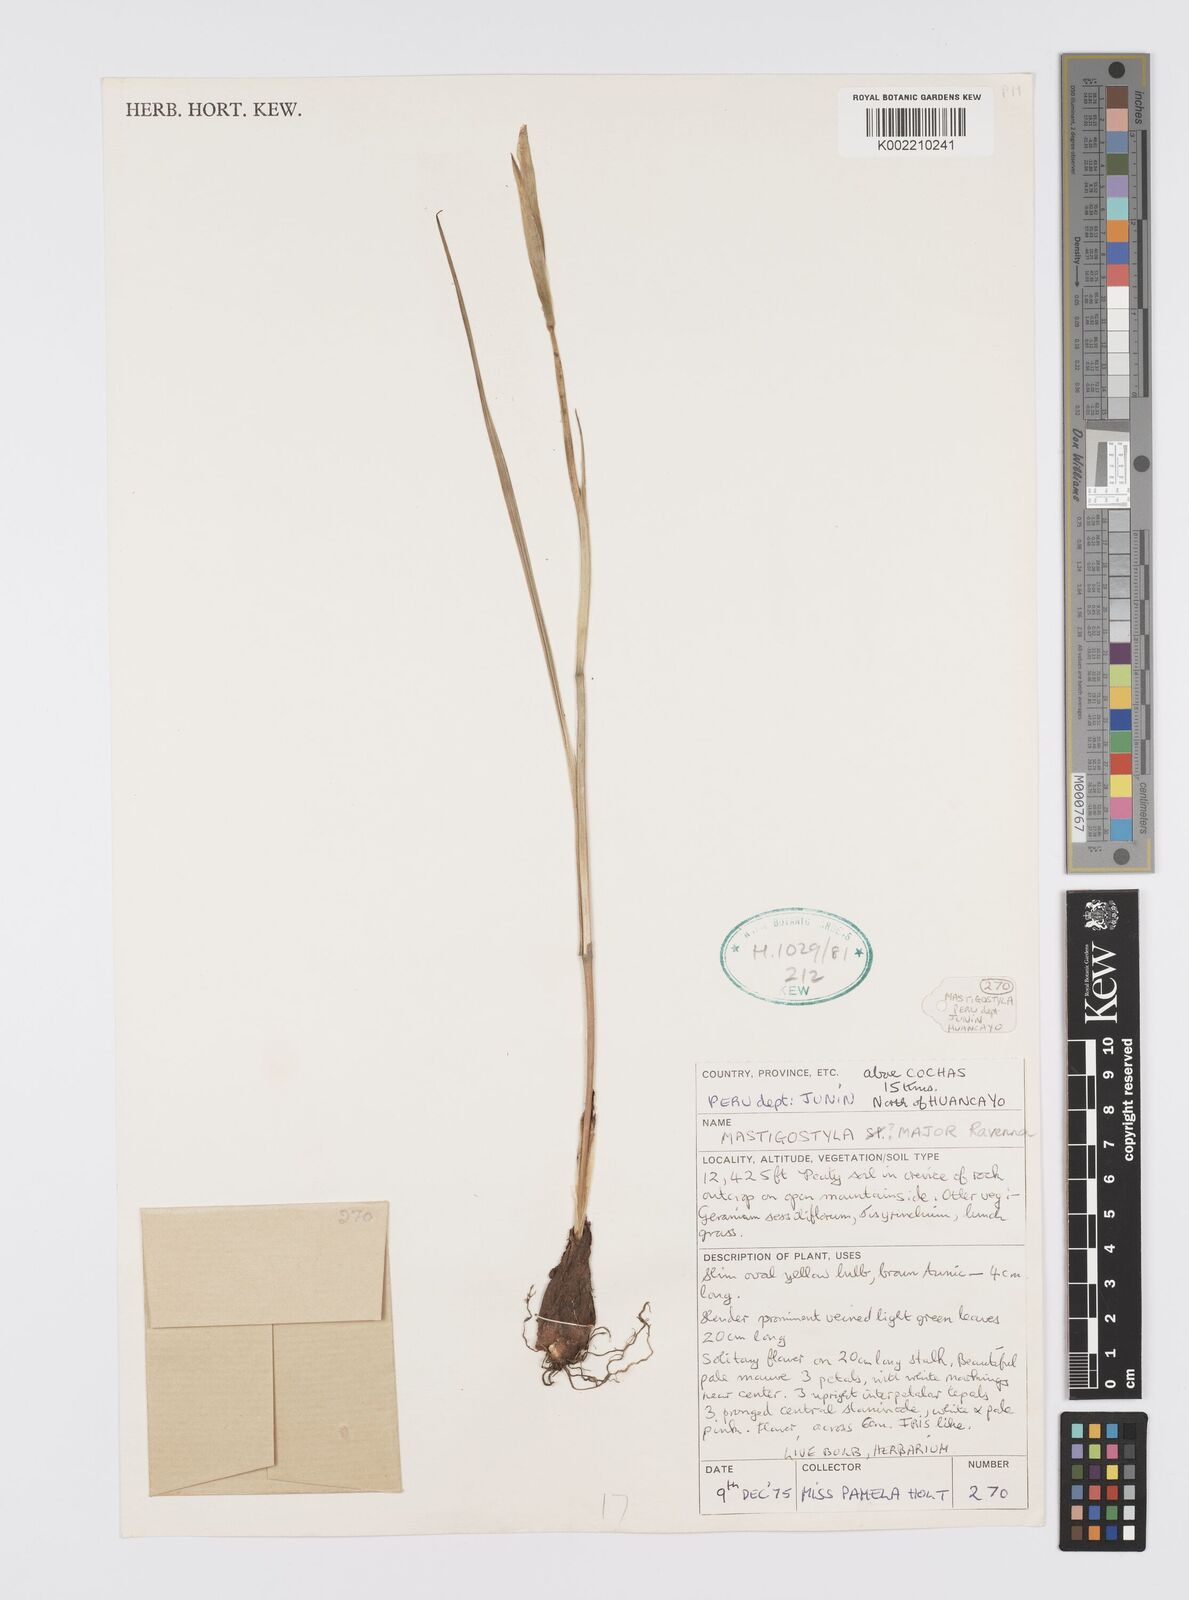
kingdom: Plantae
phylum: Tracheophyta
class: Liliopsida
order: Asparagales
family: Iridaceae
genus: Mastigostyla
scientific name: Mastigostyla major
